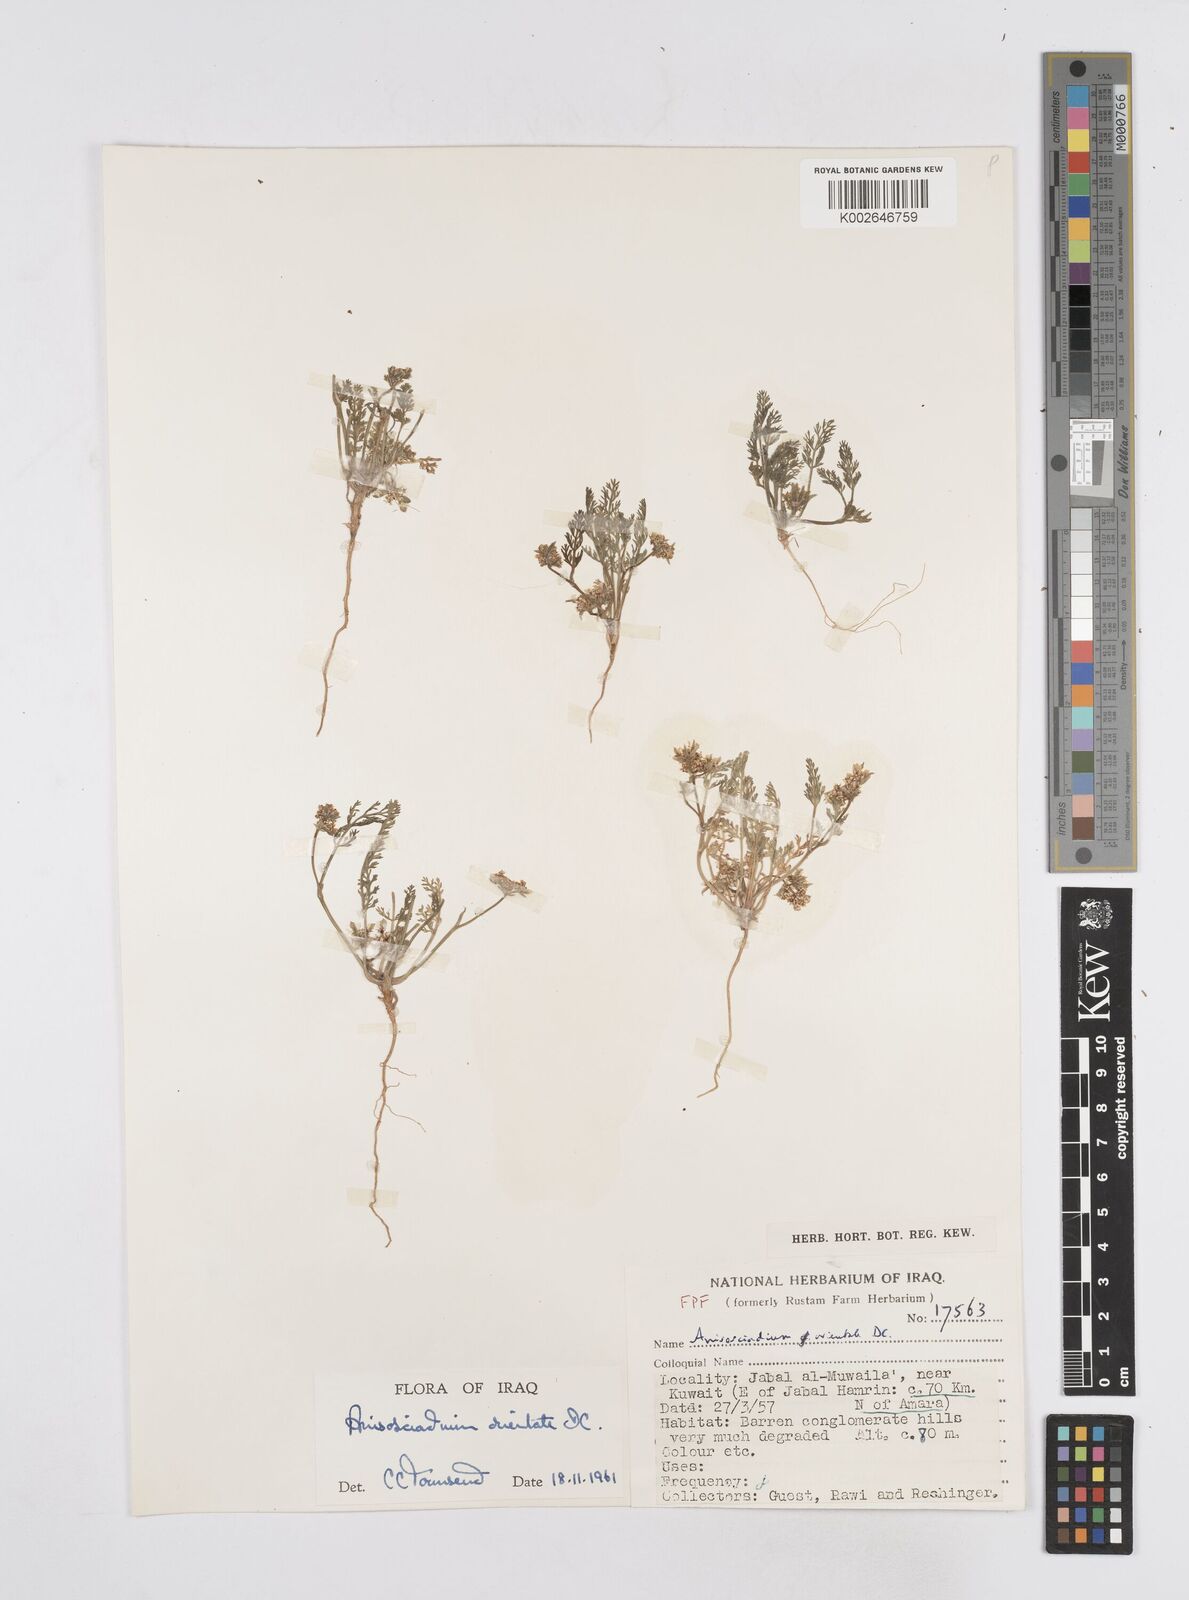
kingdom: Plantae
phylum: Tracheophyta
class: Magnoliopsida
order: Apiales
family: Apiaceae
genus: Anisosciadium
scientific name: Anisosciadium orientale
